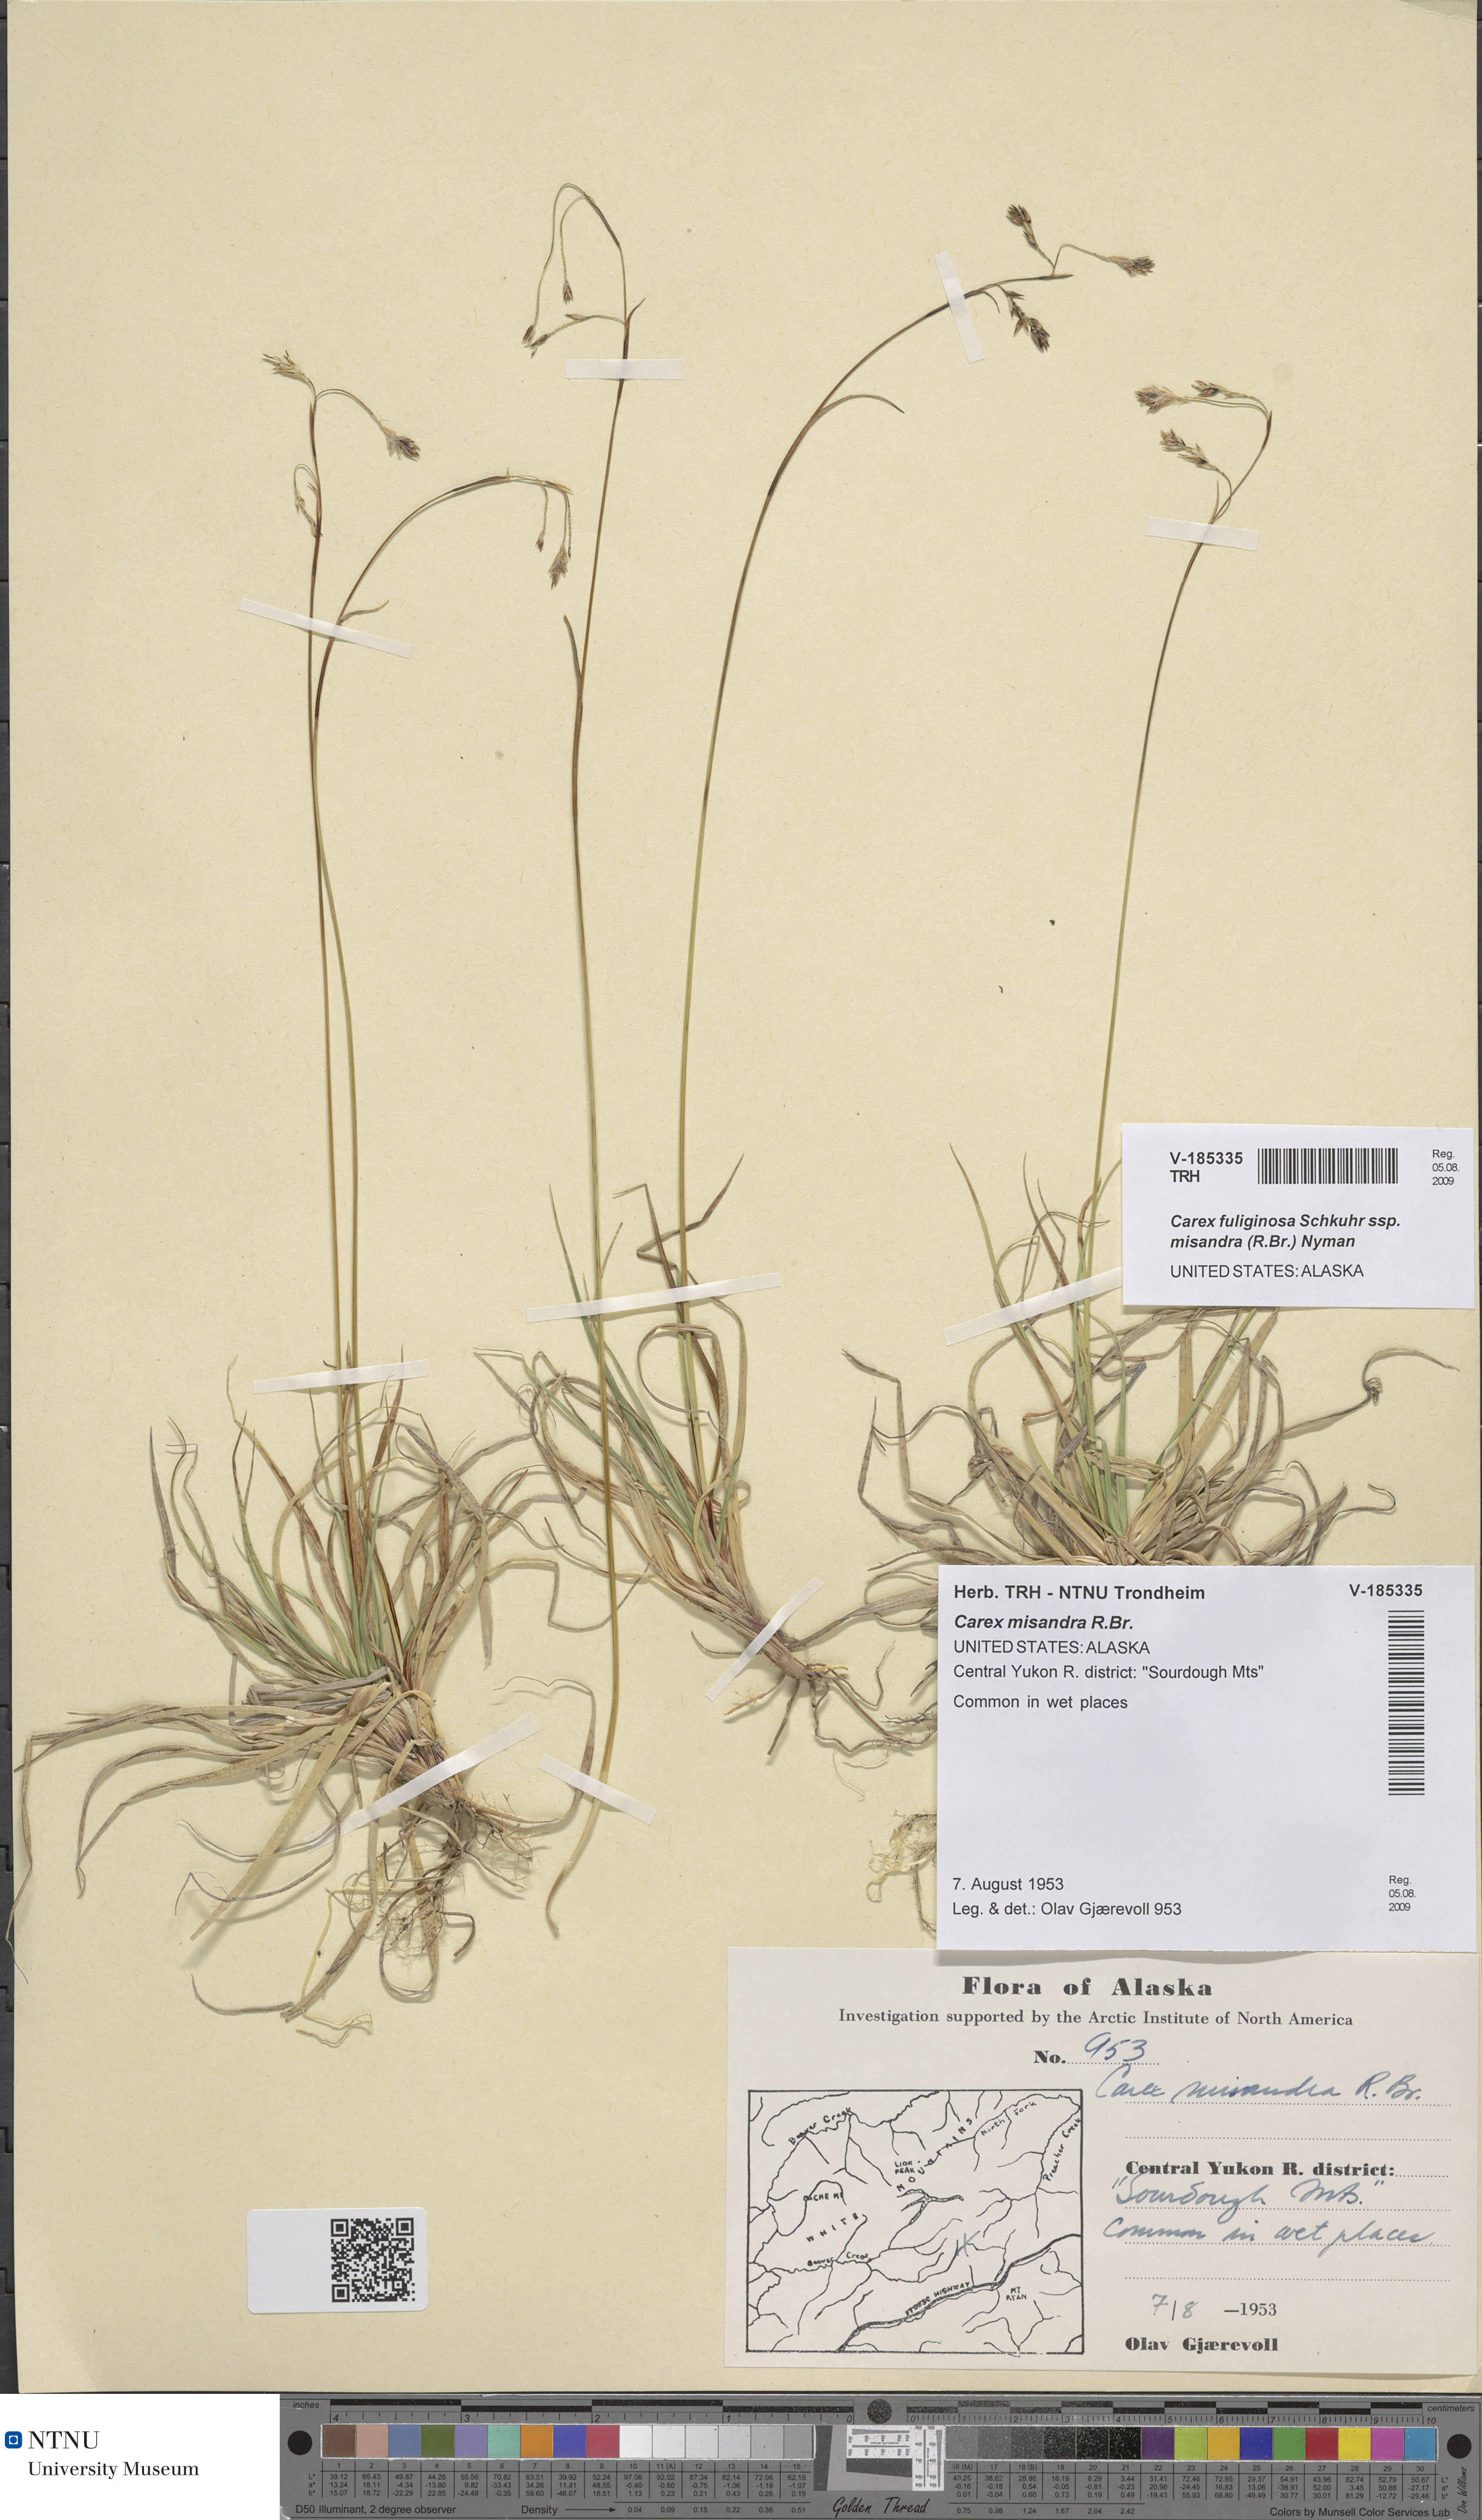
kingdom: Plantae
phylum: Tracheophyta
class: Liliopsida
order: Poales
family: Cyperaceae
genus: Carex
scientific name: Carex fuliginosa
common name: Few-flowered sedge
